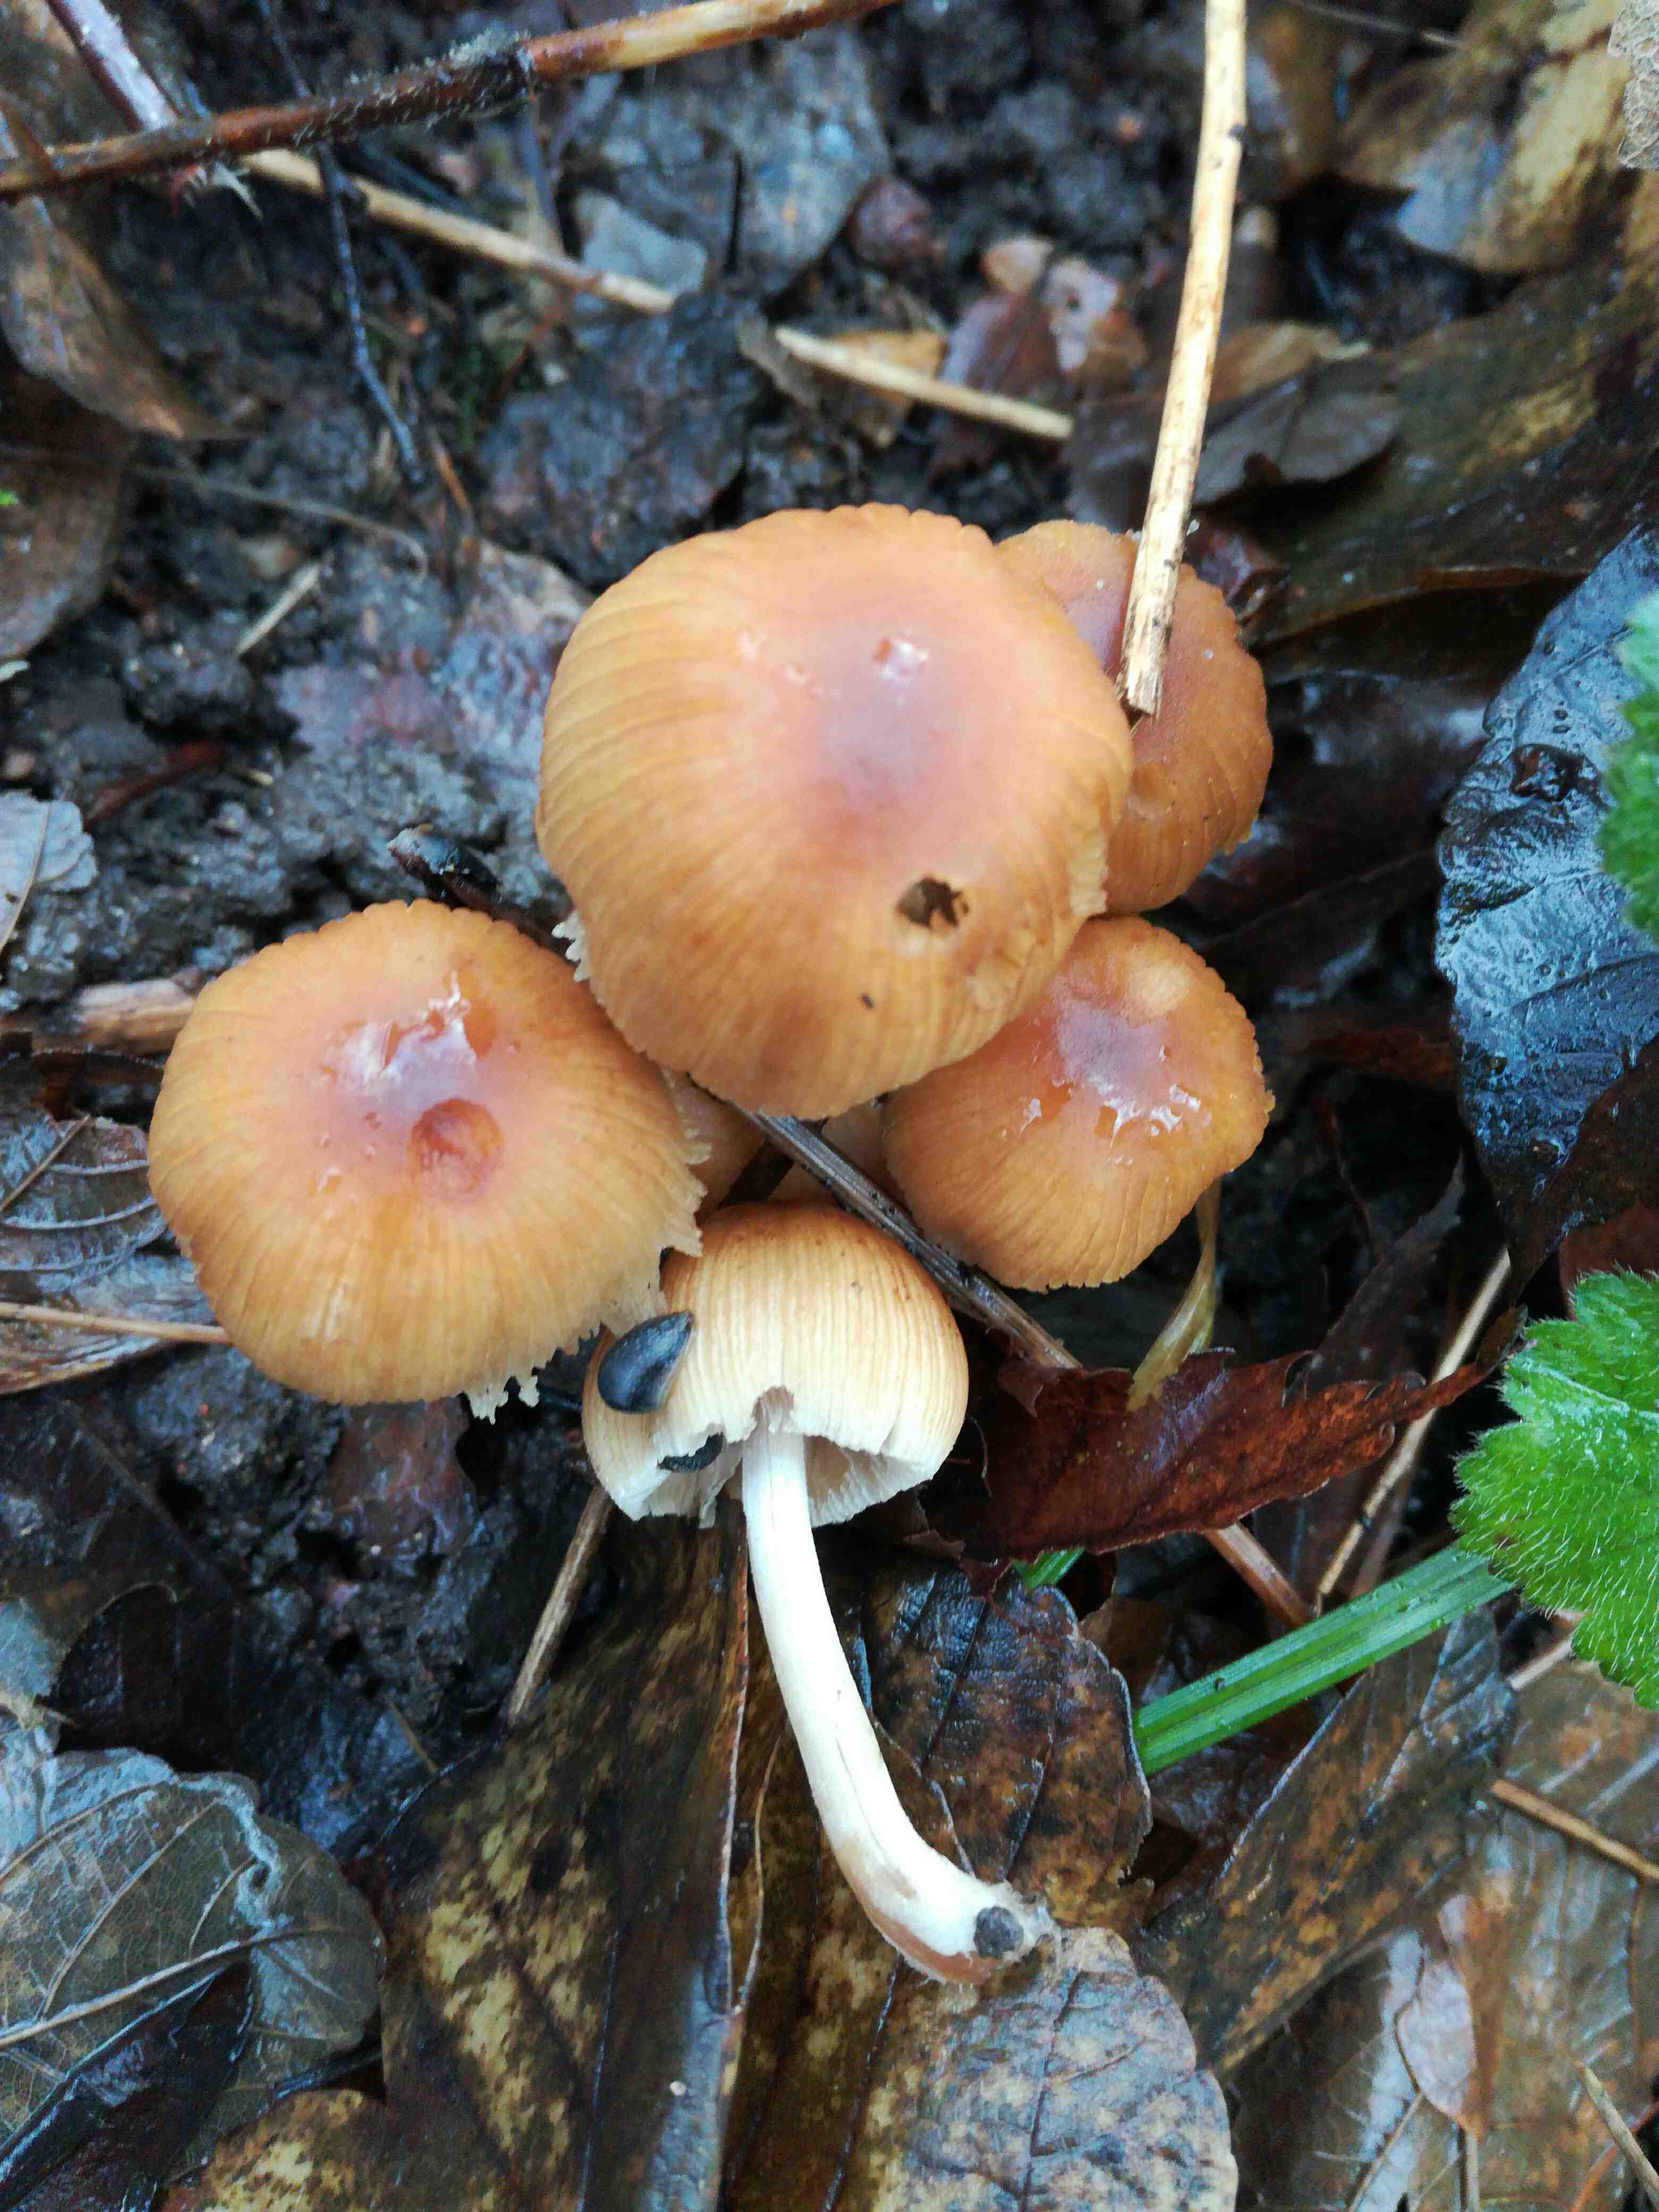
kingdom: Fungi
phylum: Basidiomycota
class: Agaricomycetes
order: Agaricales
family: Psathyrellaceae
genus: Coprinellus
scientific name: Coprinellus micaceus
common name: glimmer-blækhat
